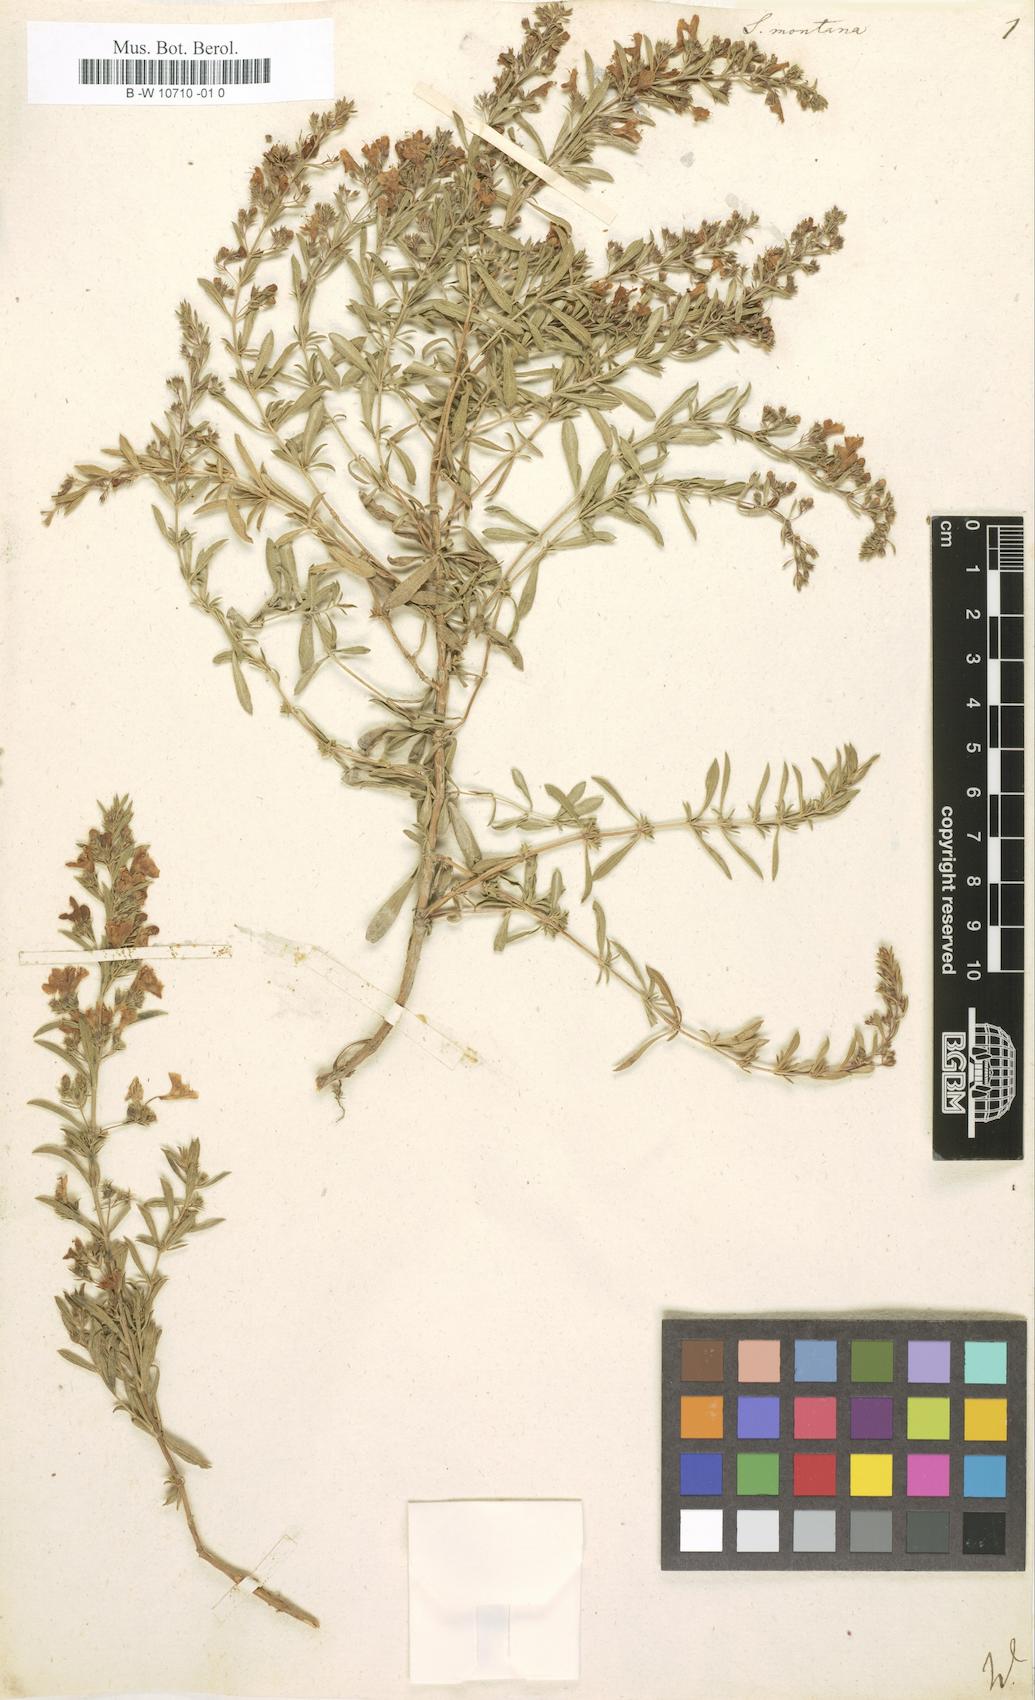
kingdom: Plantae
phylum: Tracheophyta
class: Magnoliopsida
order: Lamiales
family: Lamiaceae
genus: Satureja
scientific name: Satureja montana
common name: Winter savory
